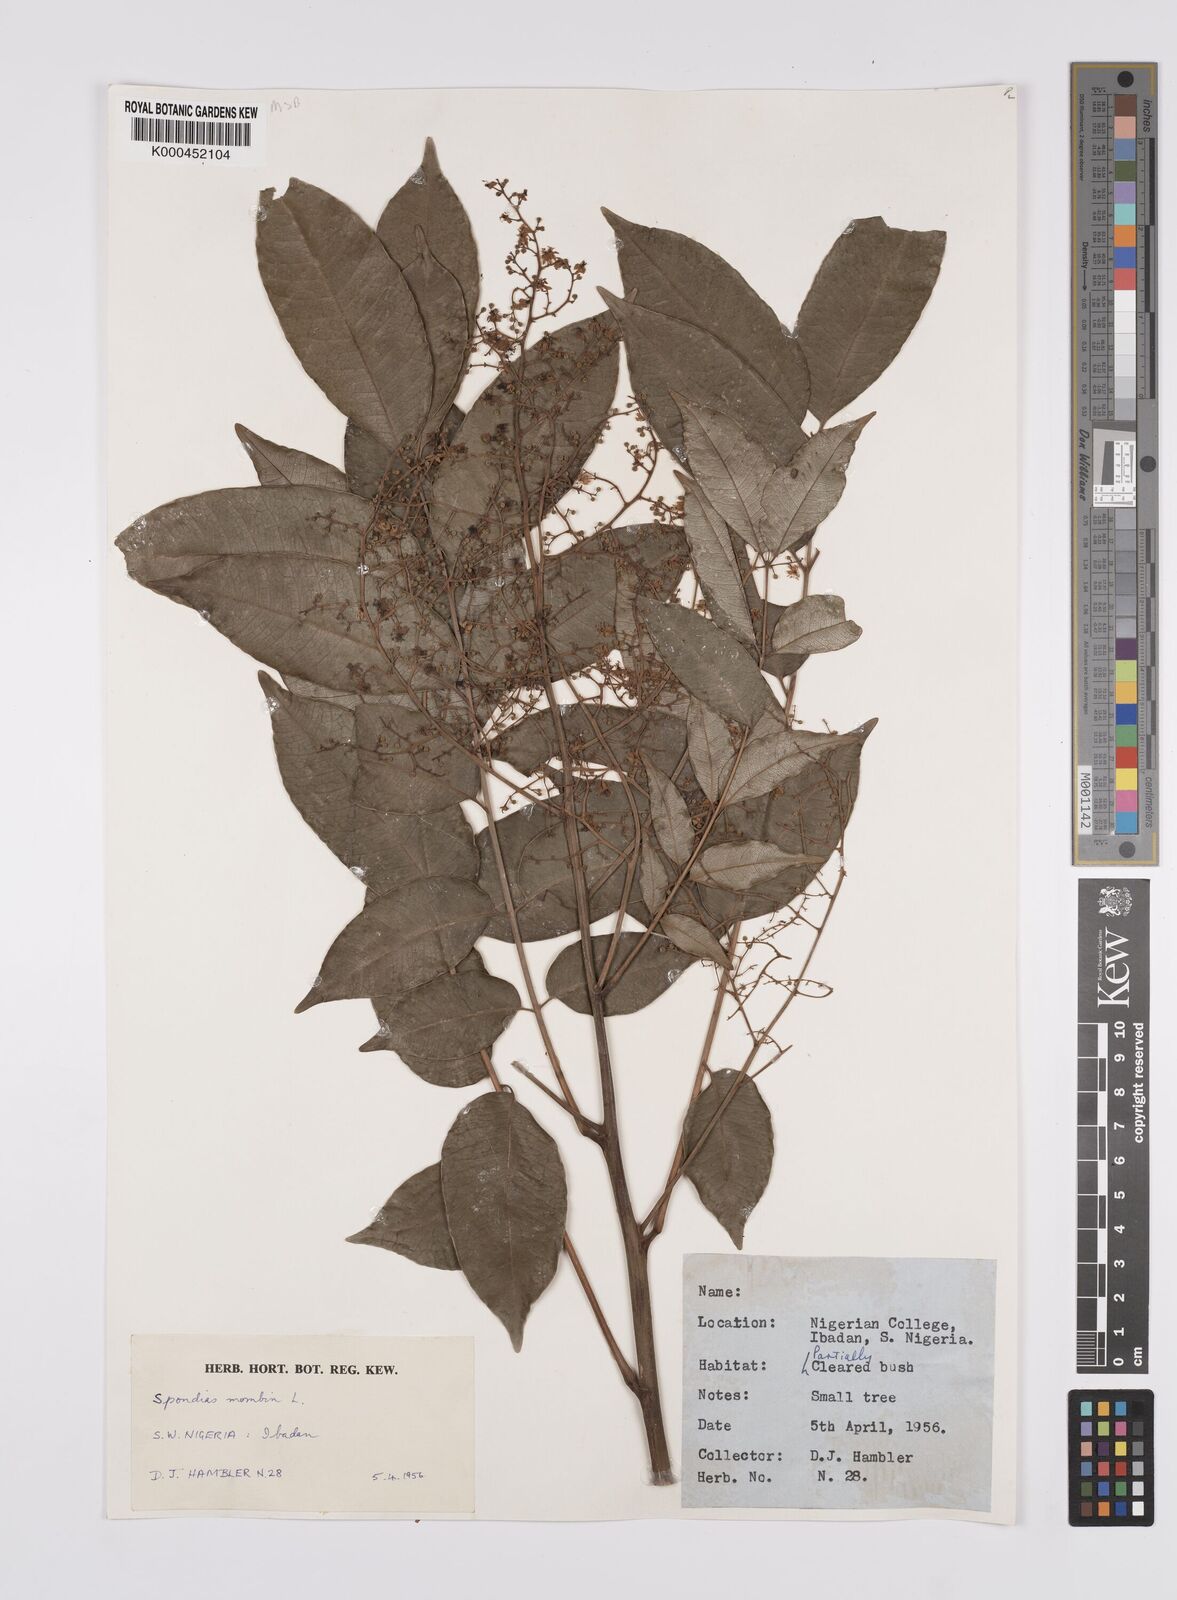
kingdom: Plantae
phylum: Tracheophyta
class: Magnoliopsida
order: Sapindales
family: Anacardiaceae
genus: Spondias
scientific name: Spondias mombin
